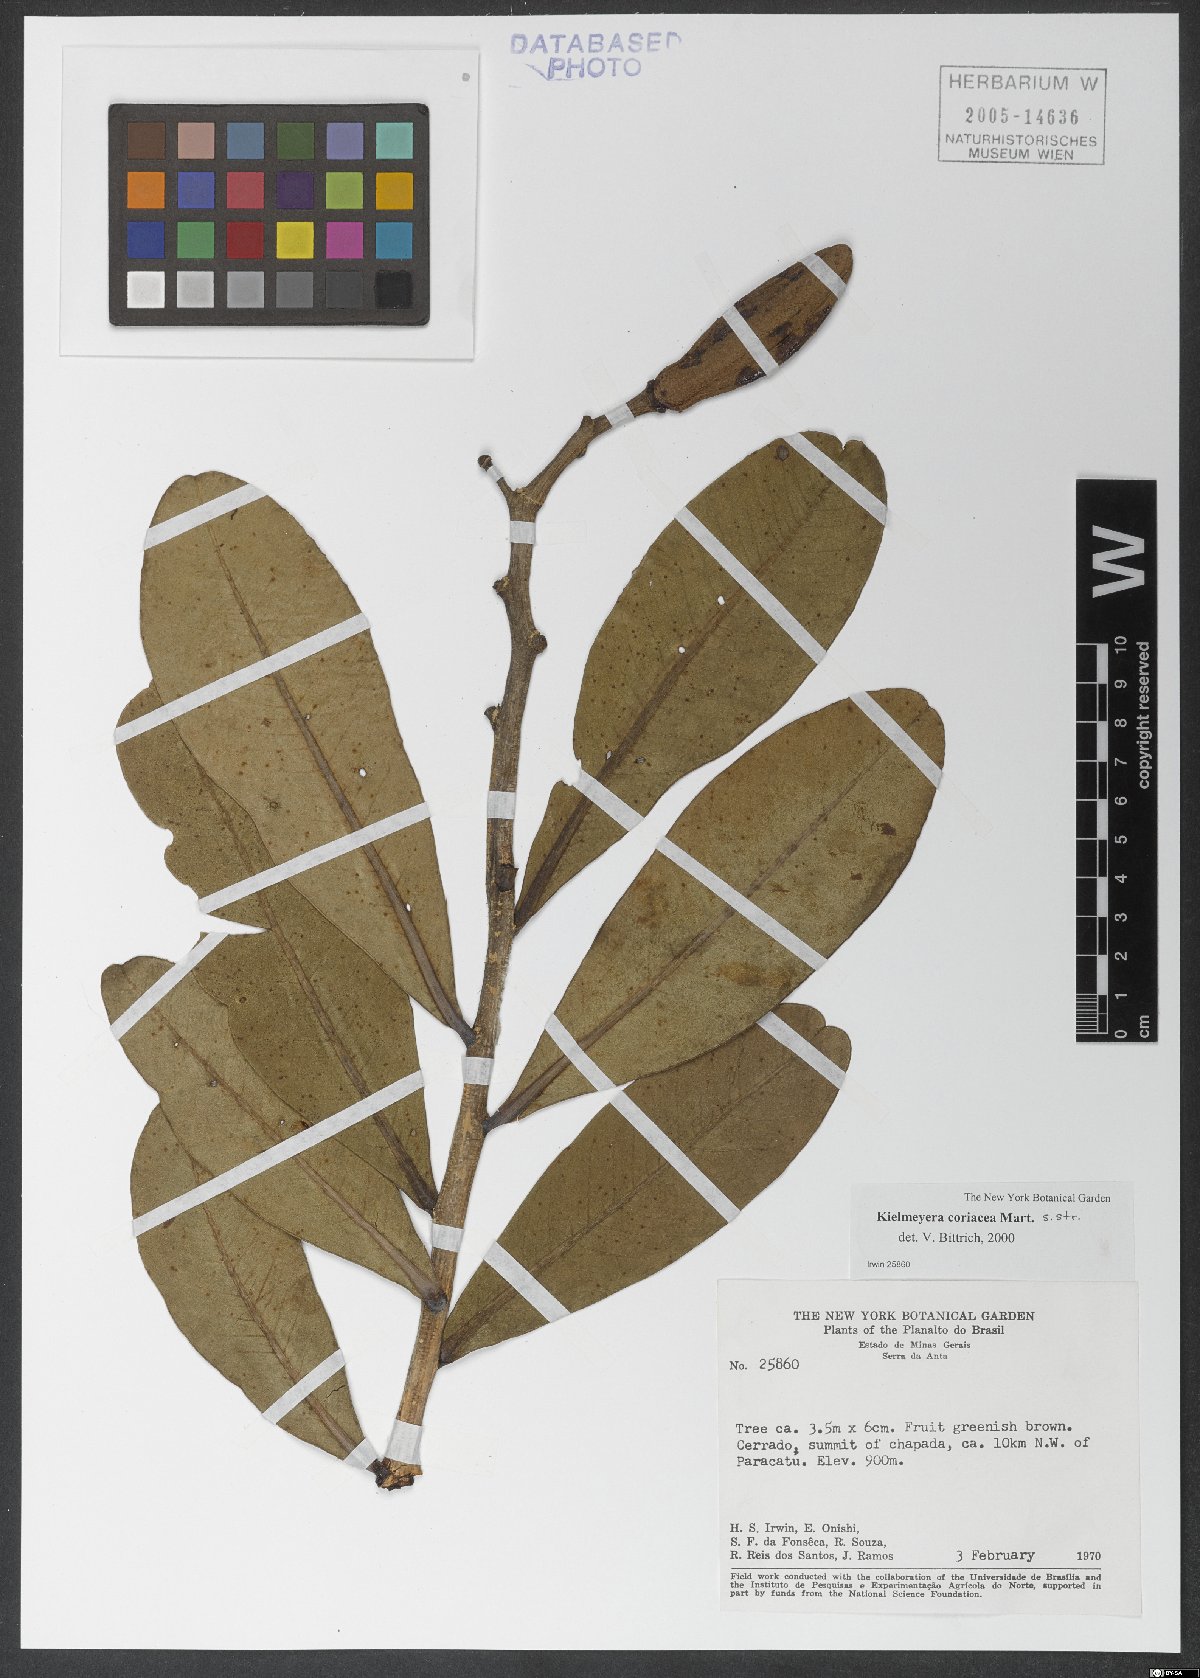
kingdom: Plantae
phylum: Tracheophyta
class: Magnoliopsida
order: Malpighiales
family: Calophyllaceae
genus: Kielmeyera
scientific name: Kielmeyera coriacea
